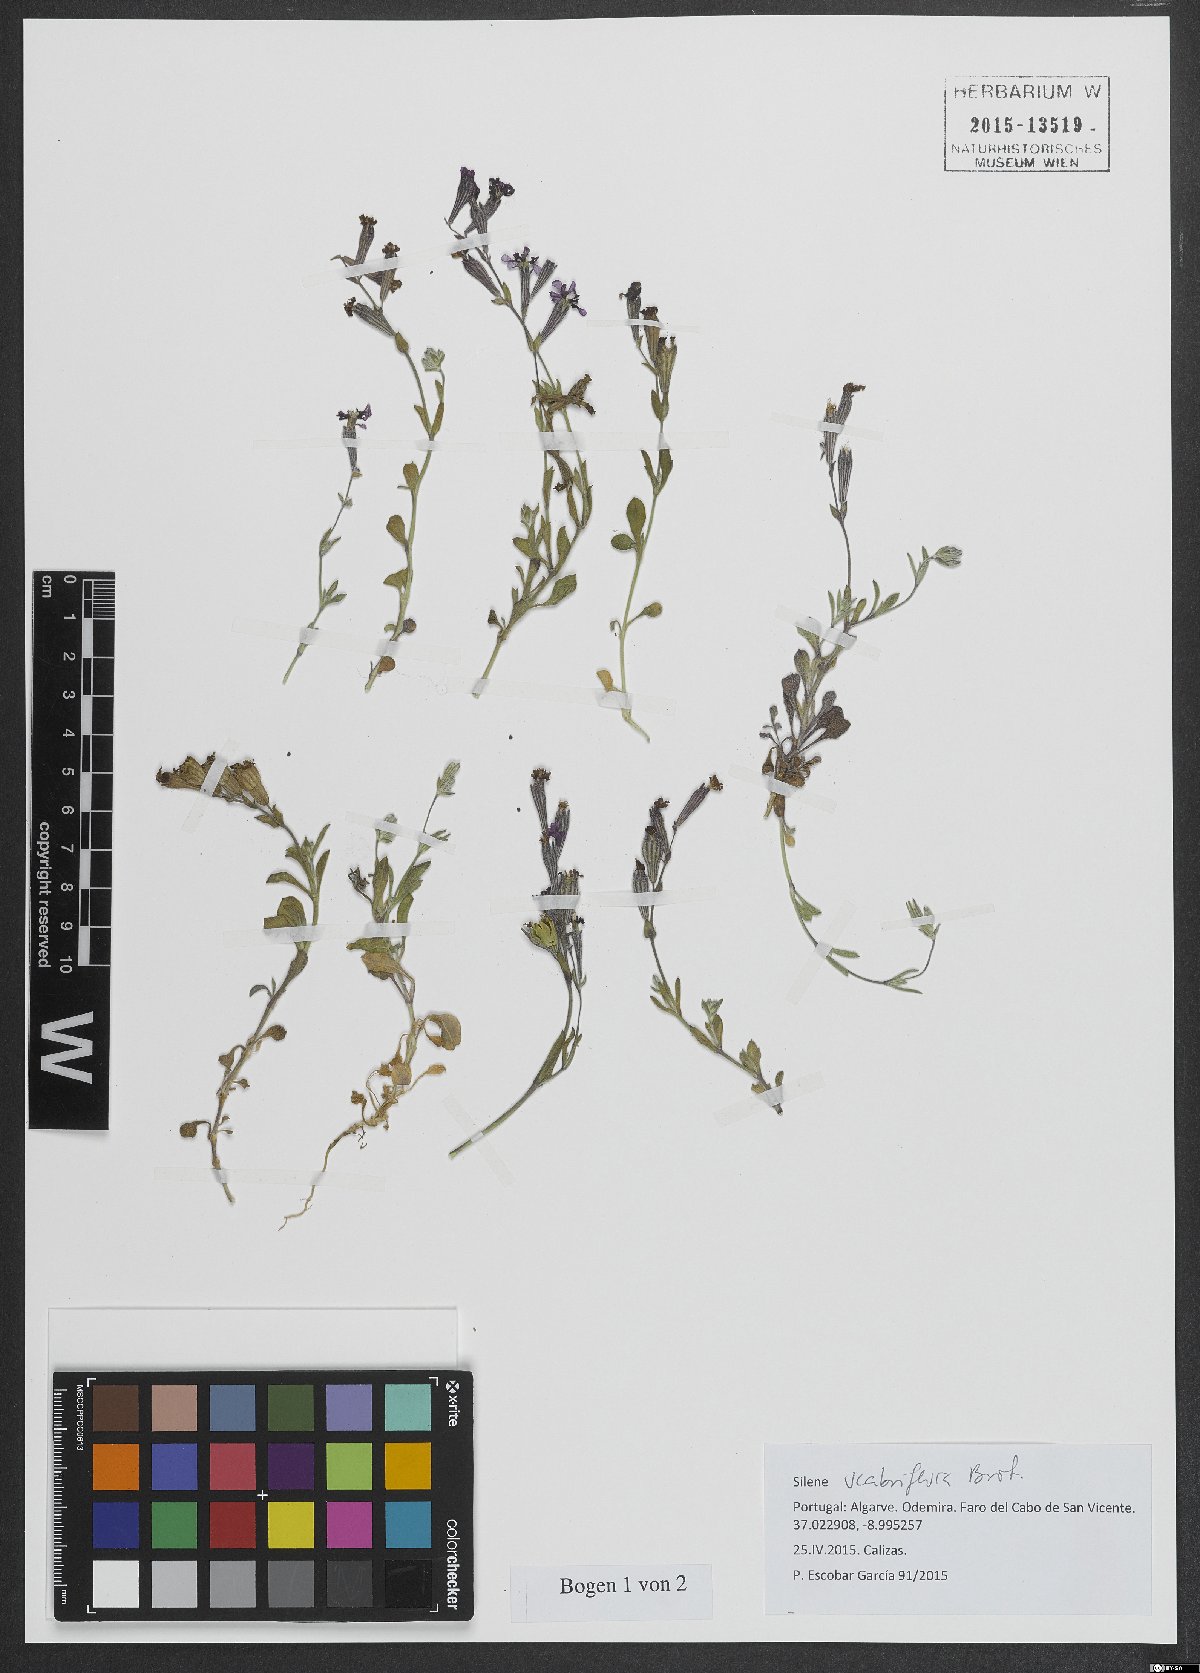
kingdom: Plantae
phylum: Tracheophyta
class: Magnoliopsida
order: Caryophyllales
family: Caryophyllaceae
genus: Silene
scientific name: Silene scabrifolia
